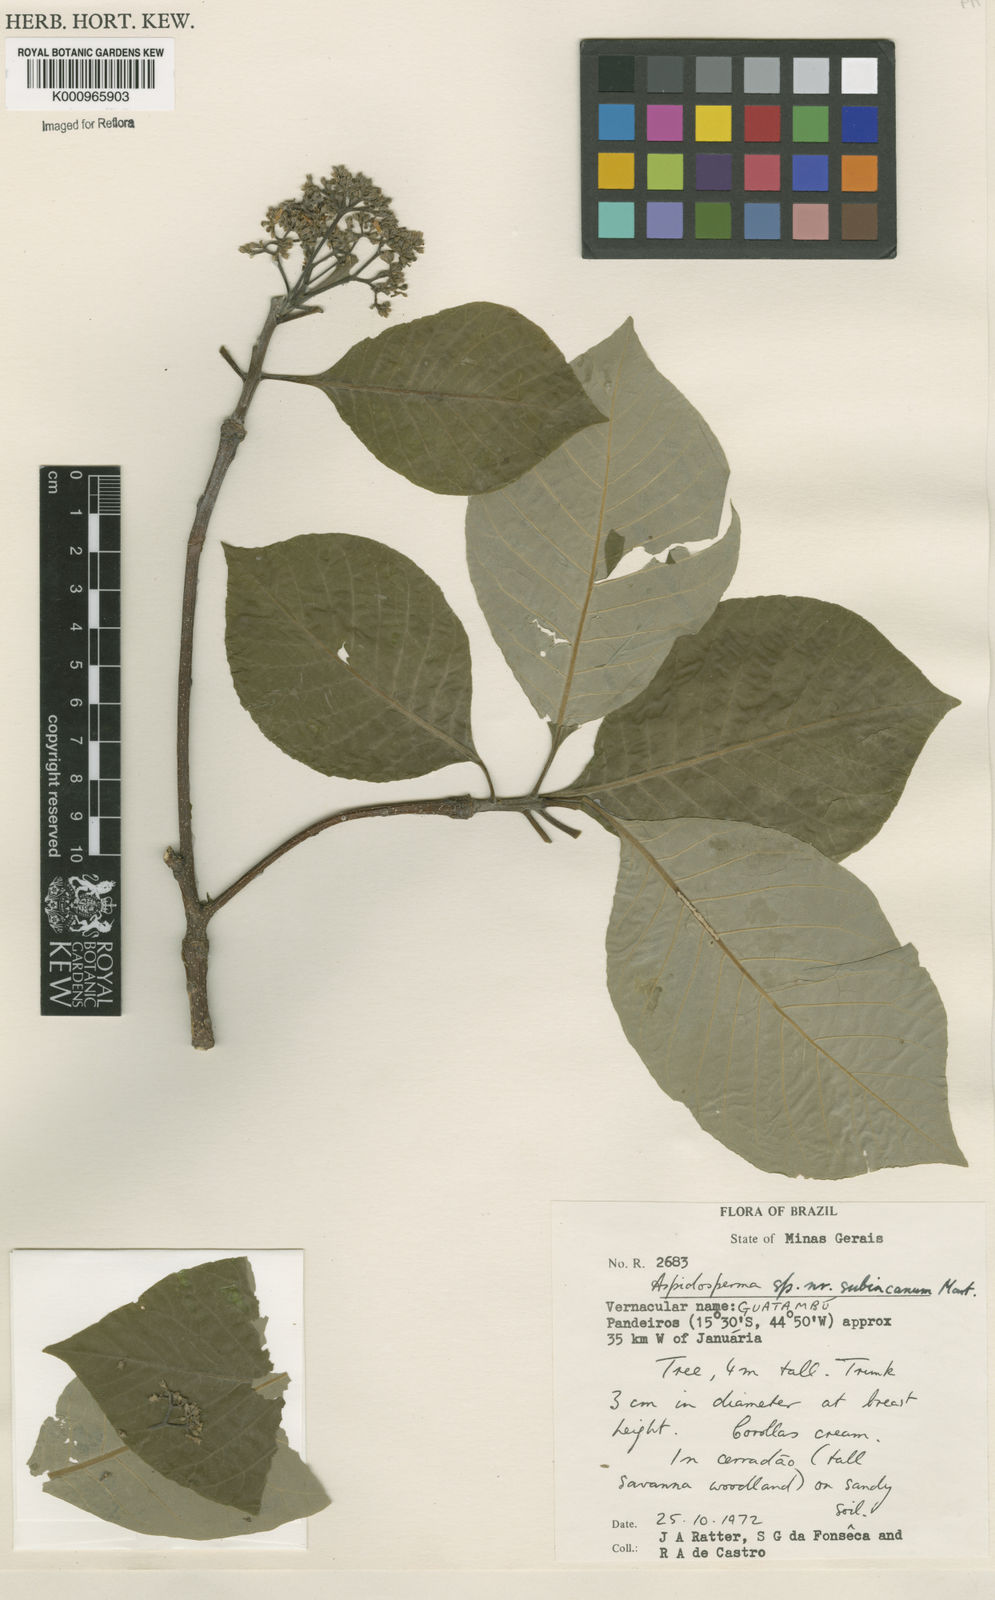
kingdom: Plantae
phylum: Tracheophyta
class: Magnoliopsida
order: Gentianales
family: Apocynaceae
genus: Aspidosperma
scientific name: Aspidosperma subincanum
